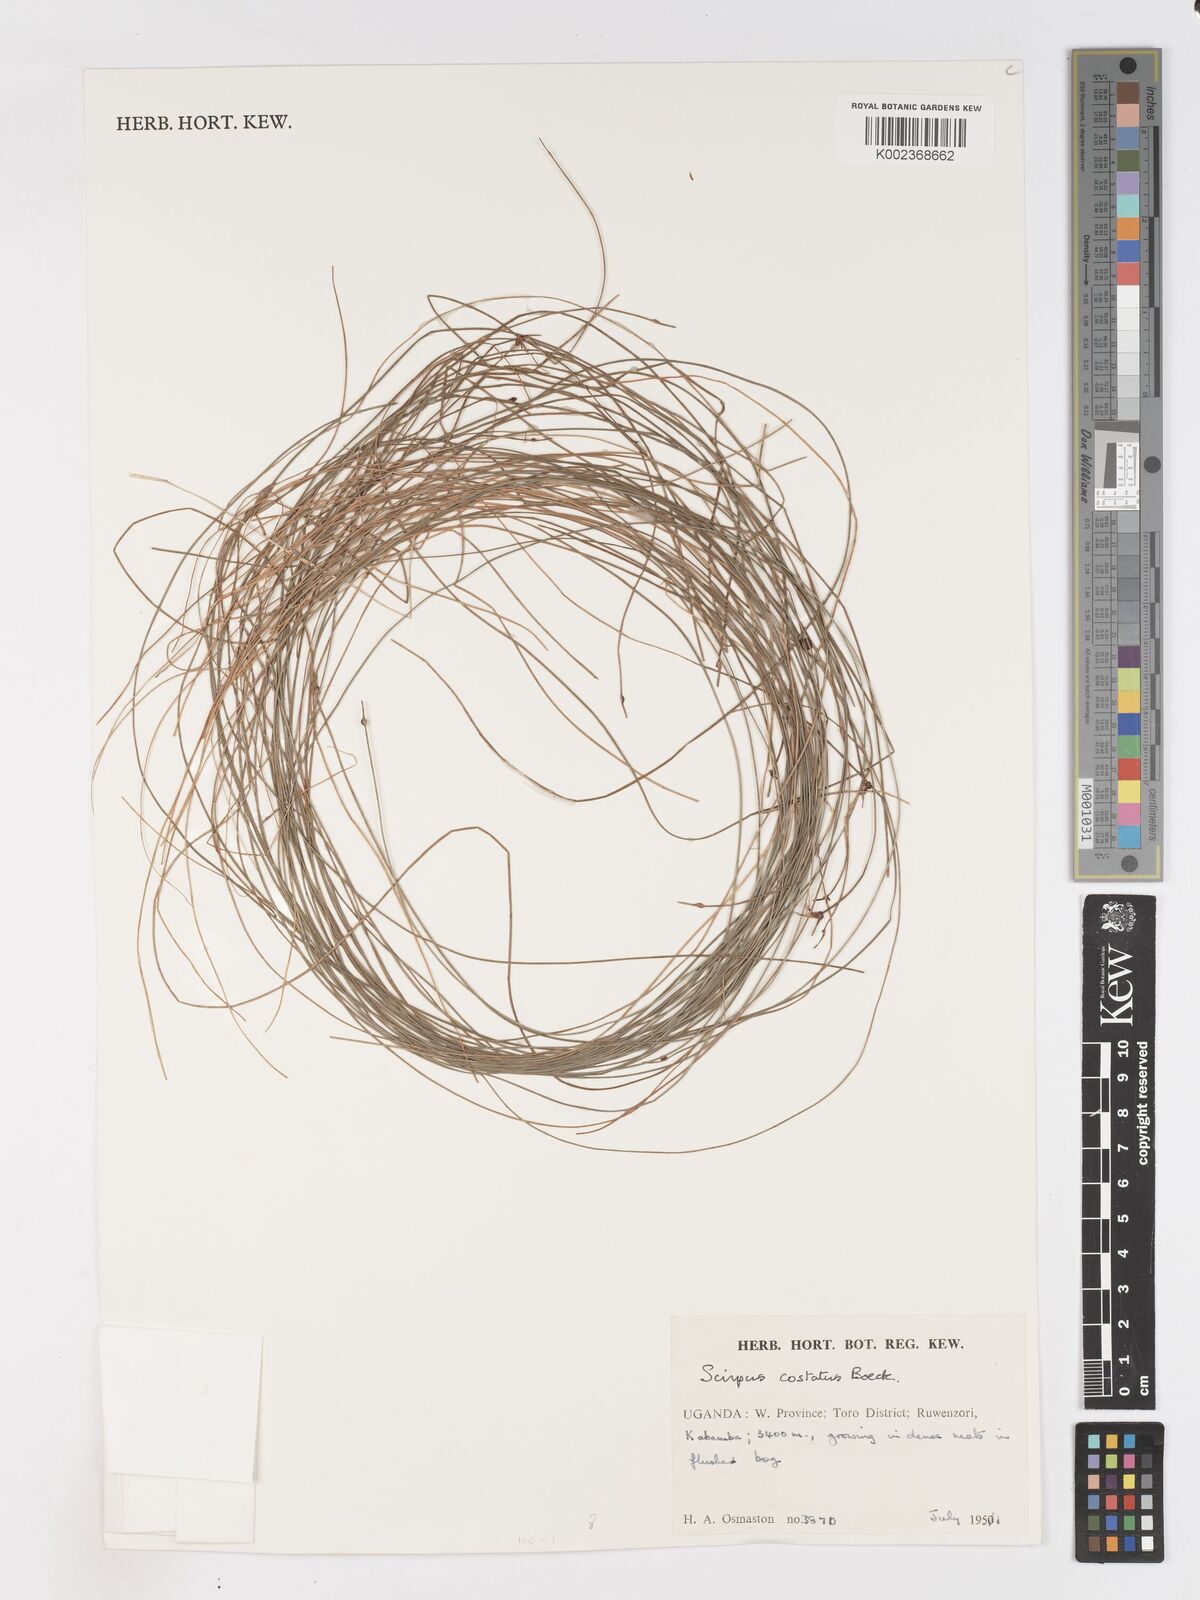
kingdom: Plantae
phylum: Tracheophyta
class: Liliopsida
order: Poales
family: Cyperaceae
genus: Isolepis
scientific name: Isolepis costata
